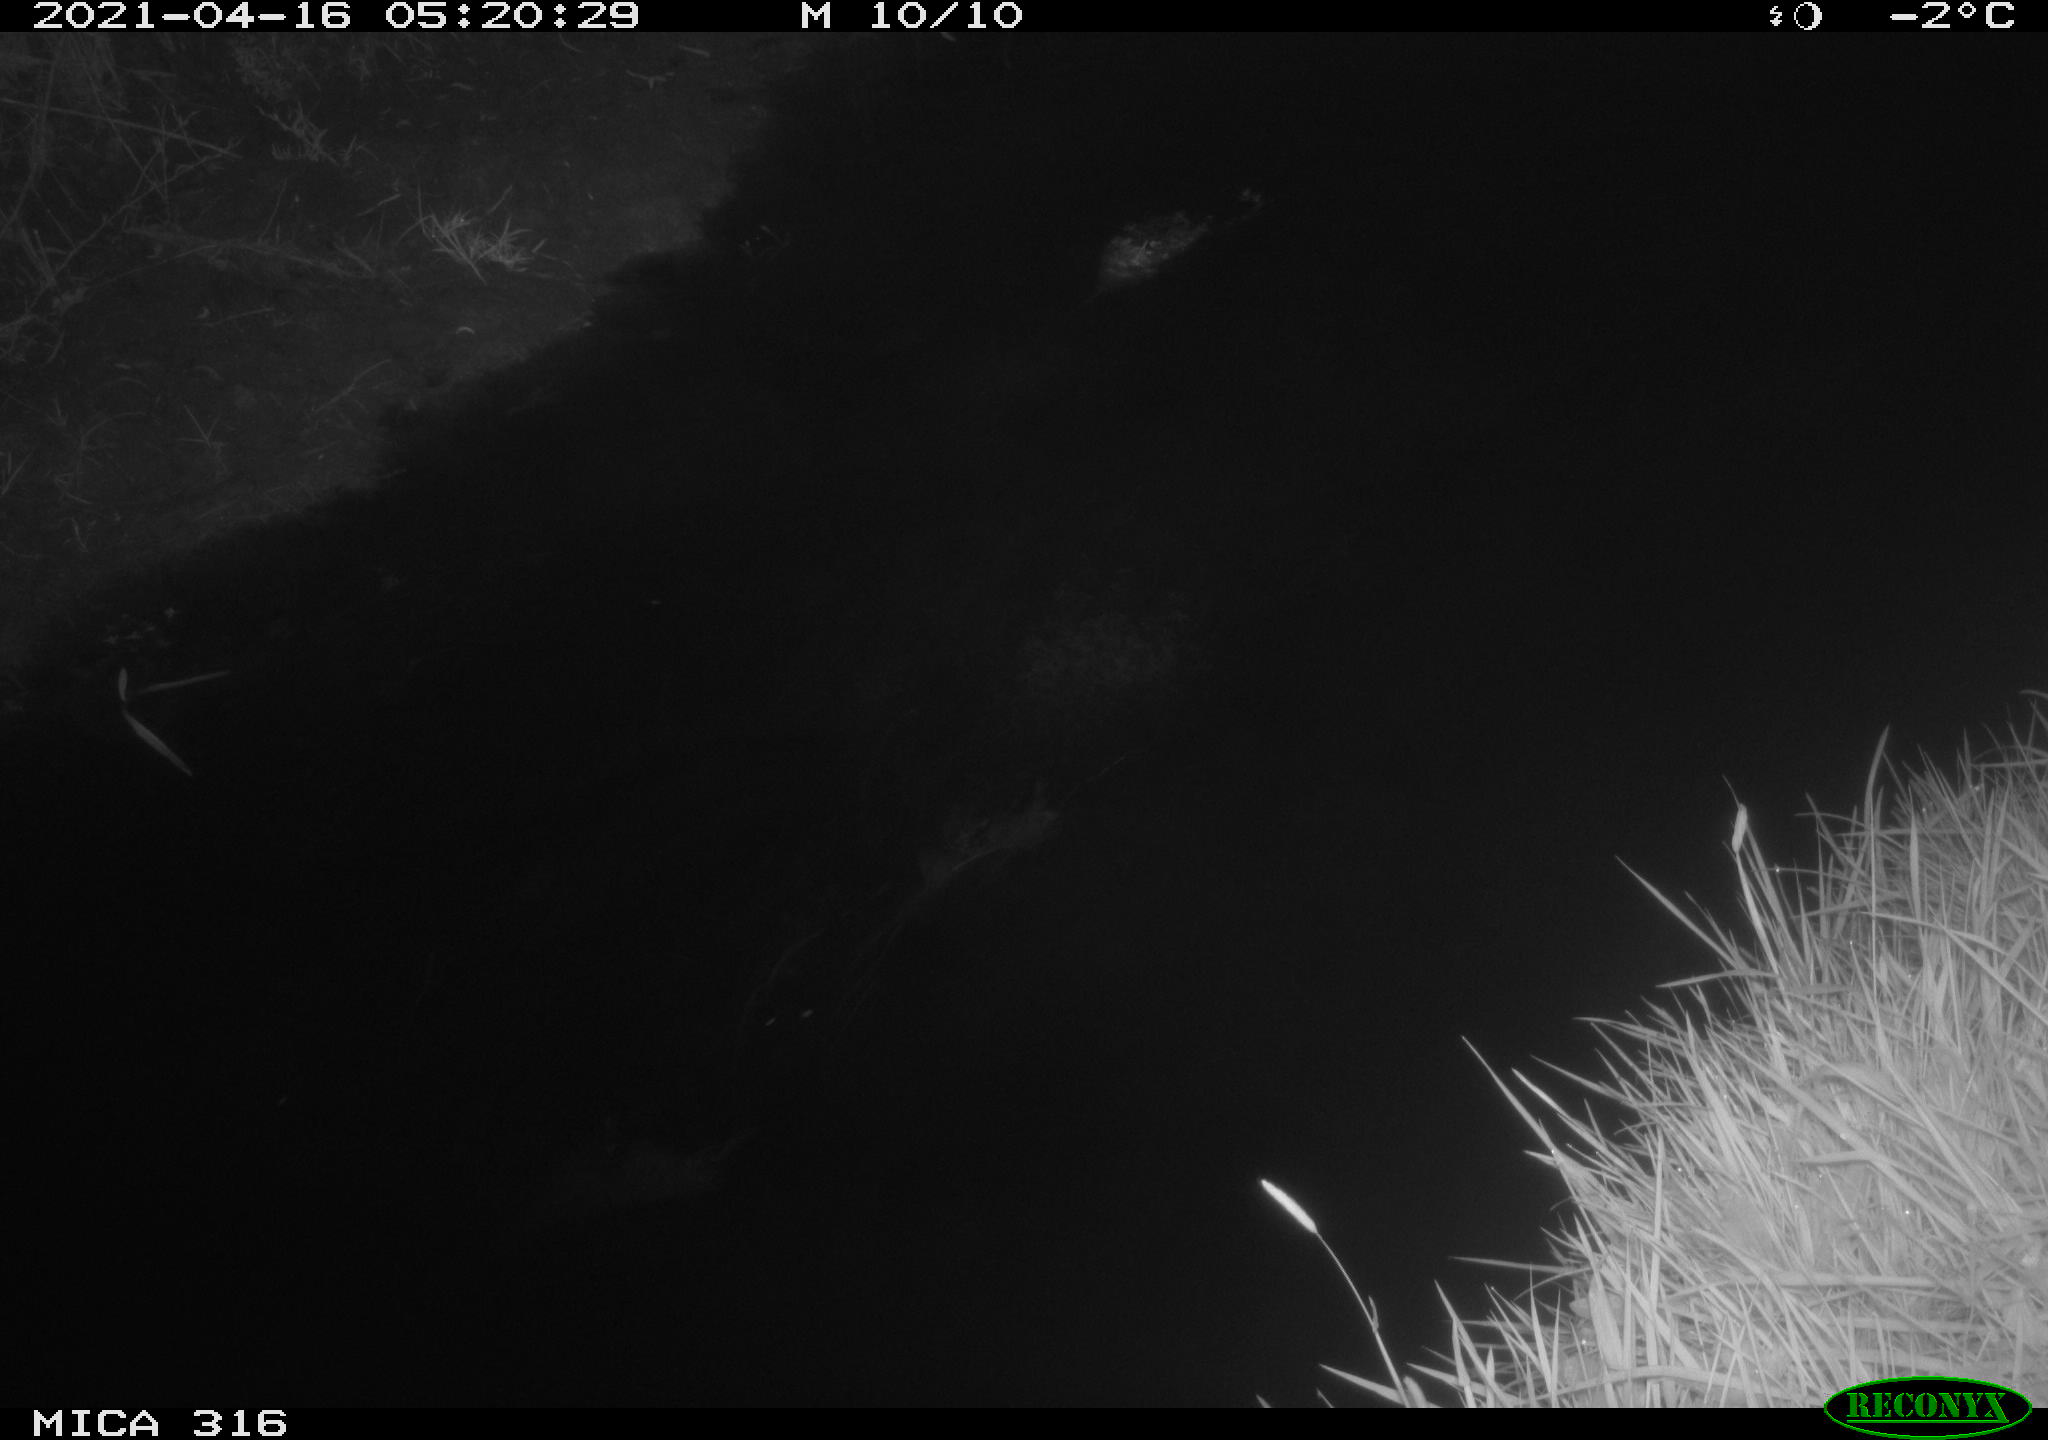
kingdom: Animalia
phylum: Chordata
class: Aves
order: Gruiformes
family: Rallidae
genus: Gallinula
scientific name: Gallinula chloropus
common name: Common moorhen
